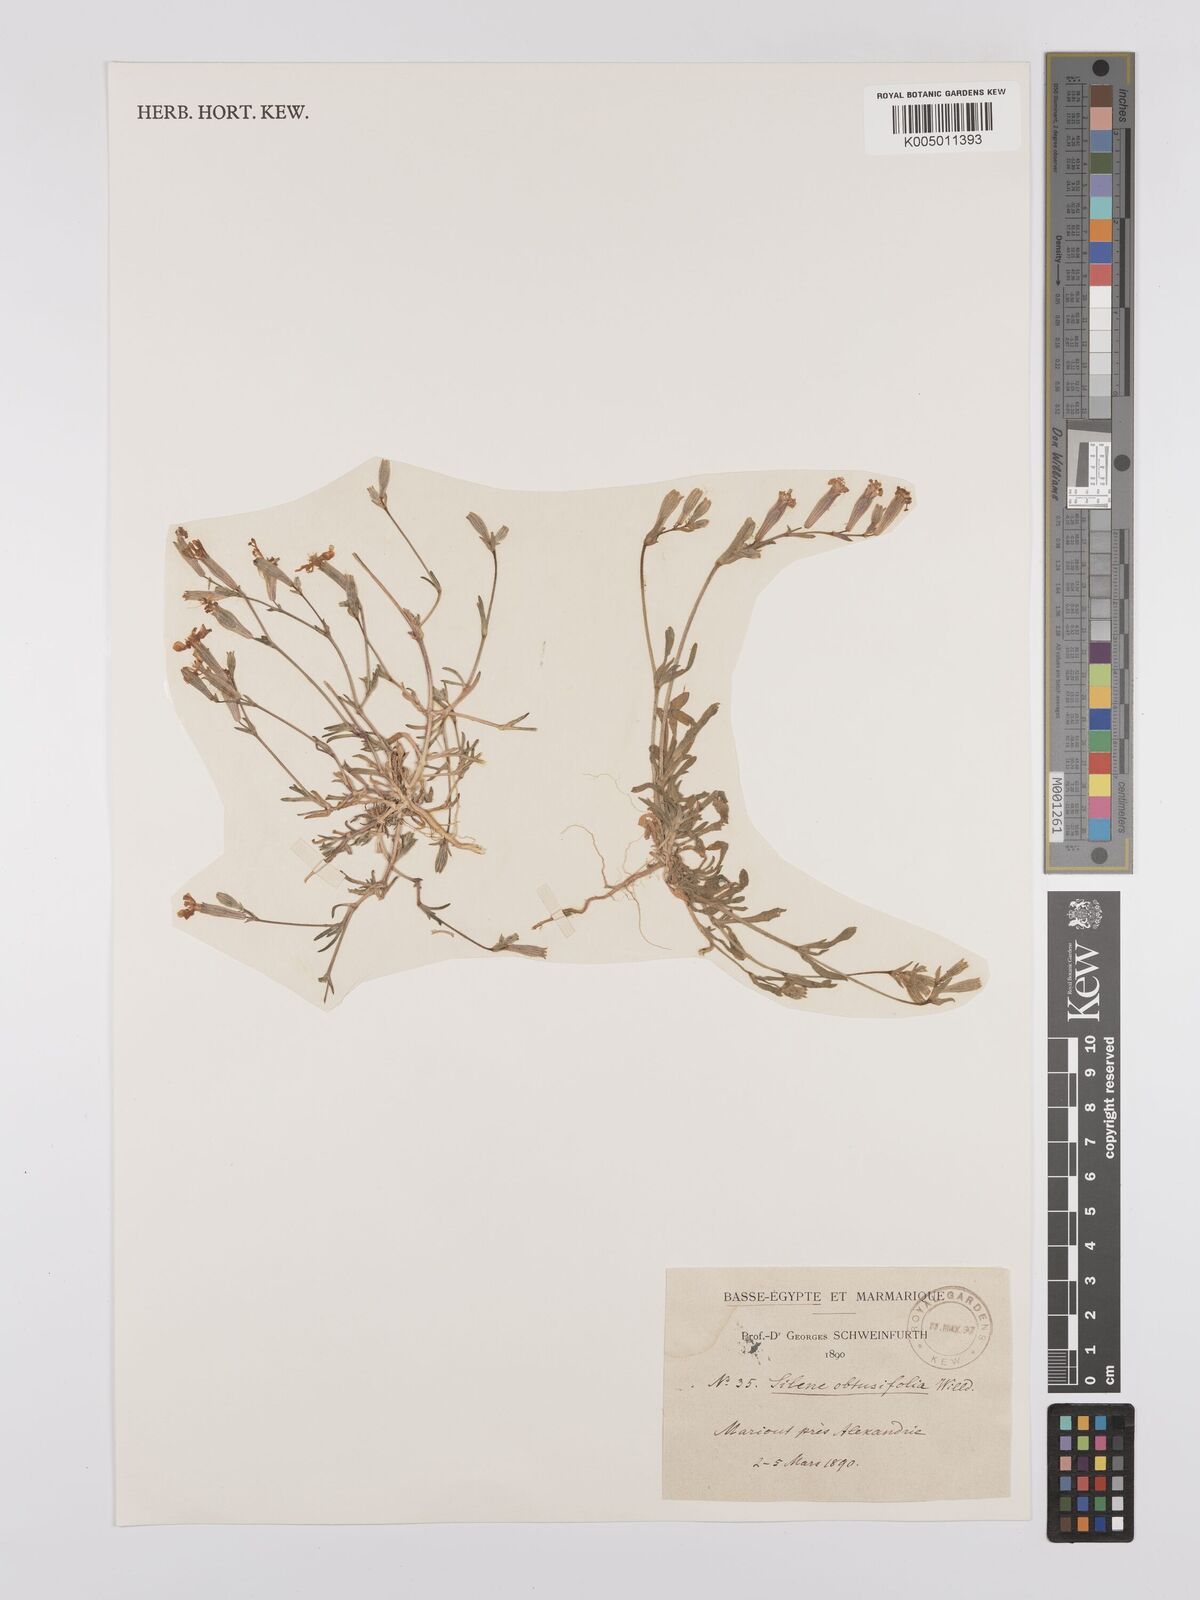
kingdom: Plantae
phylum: Tracheophyta
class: Magnoliopsida
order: Caryophyllales
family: Caryophyllaceae
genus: Silene
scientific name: Silene obtusifolia
